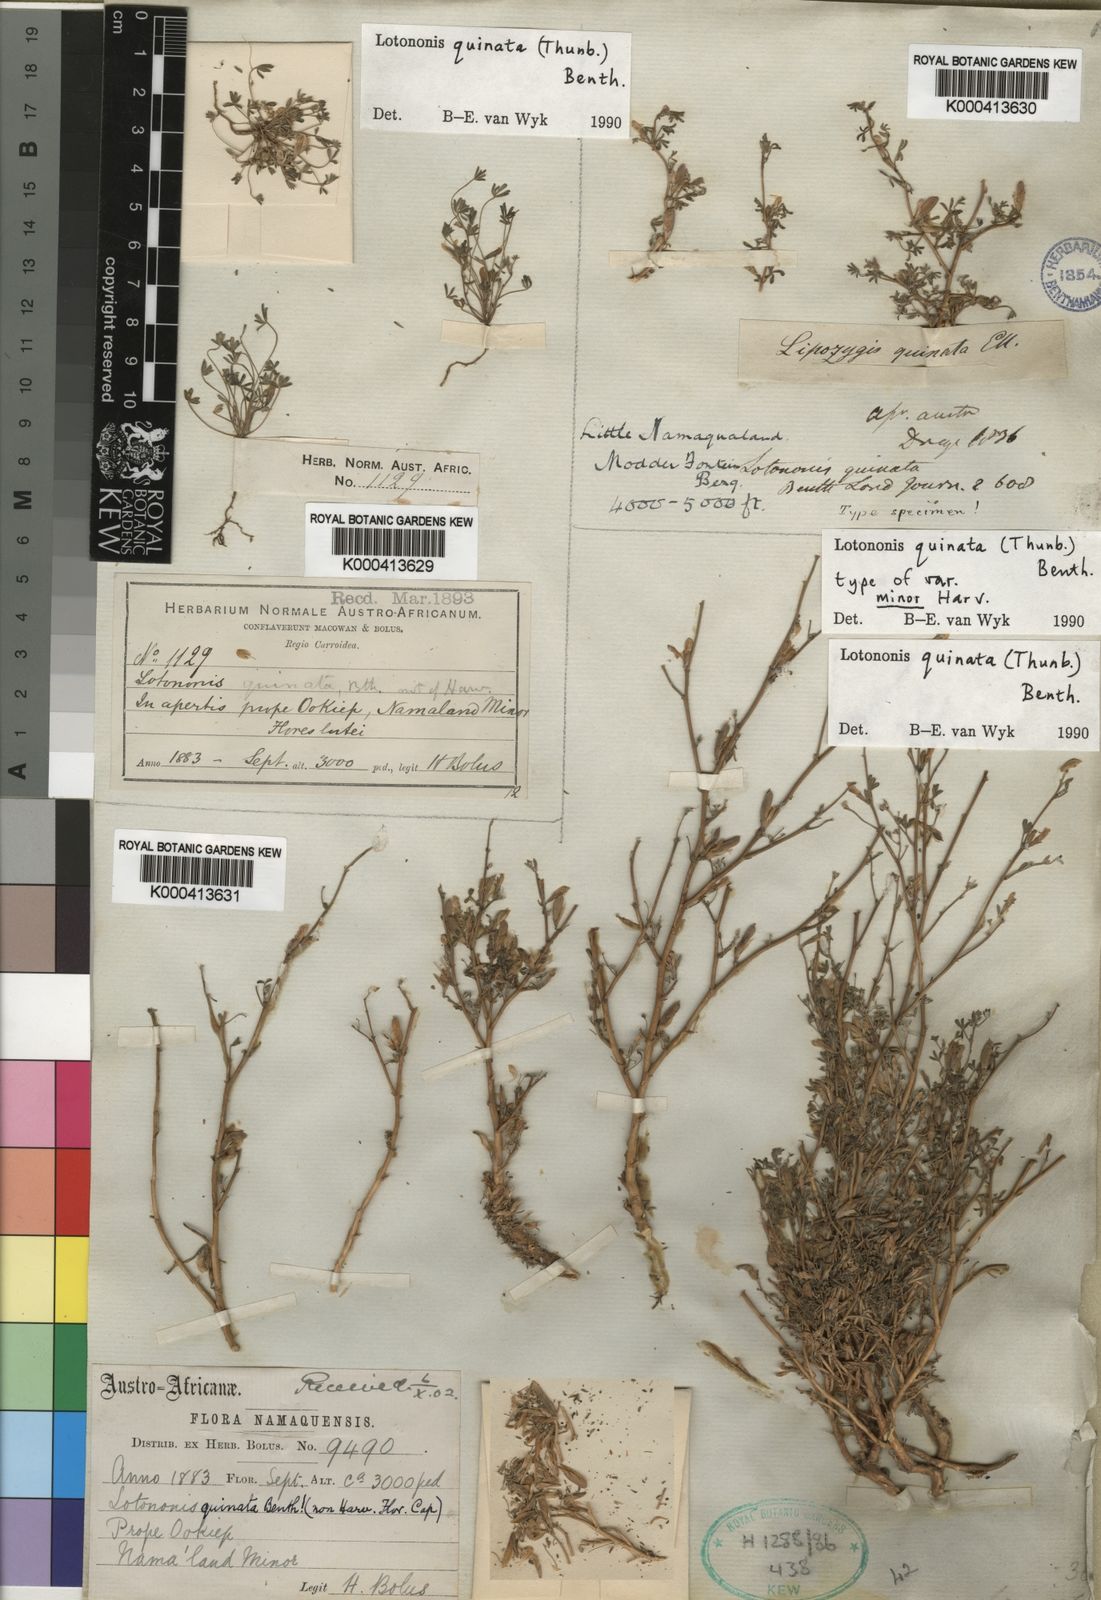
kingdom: Plantae
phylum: Tracheophyta
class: Magnoliopsida
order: Fabales
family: Fabaceae
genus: Leobordea
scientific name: Leobordea quinata
